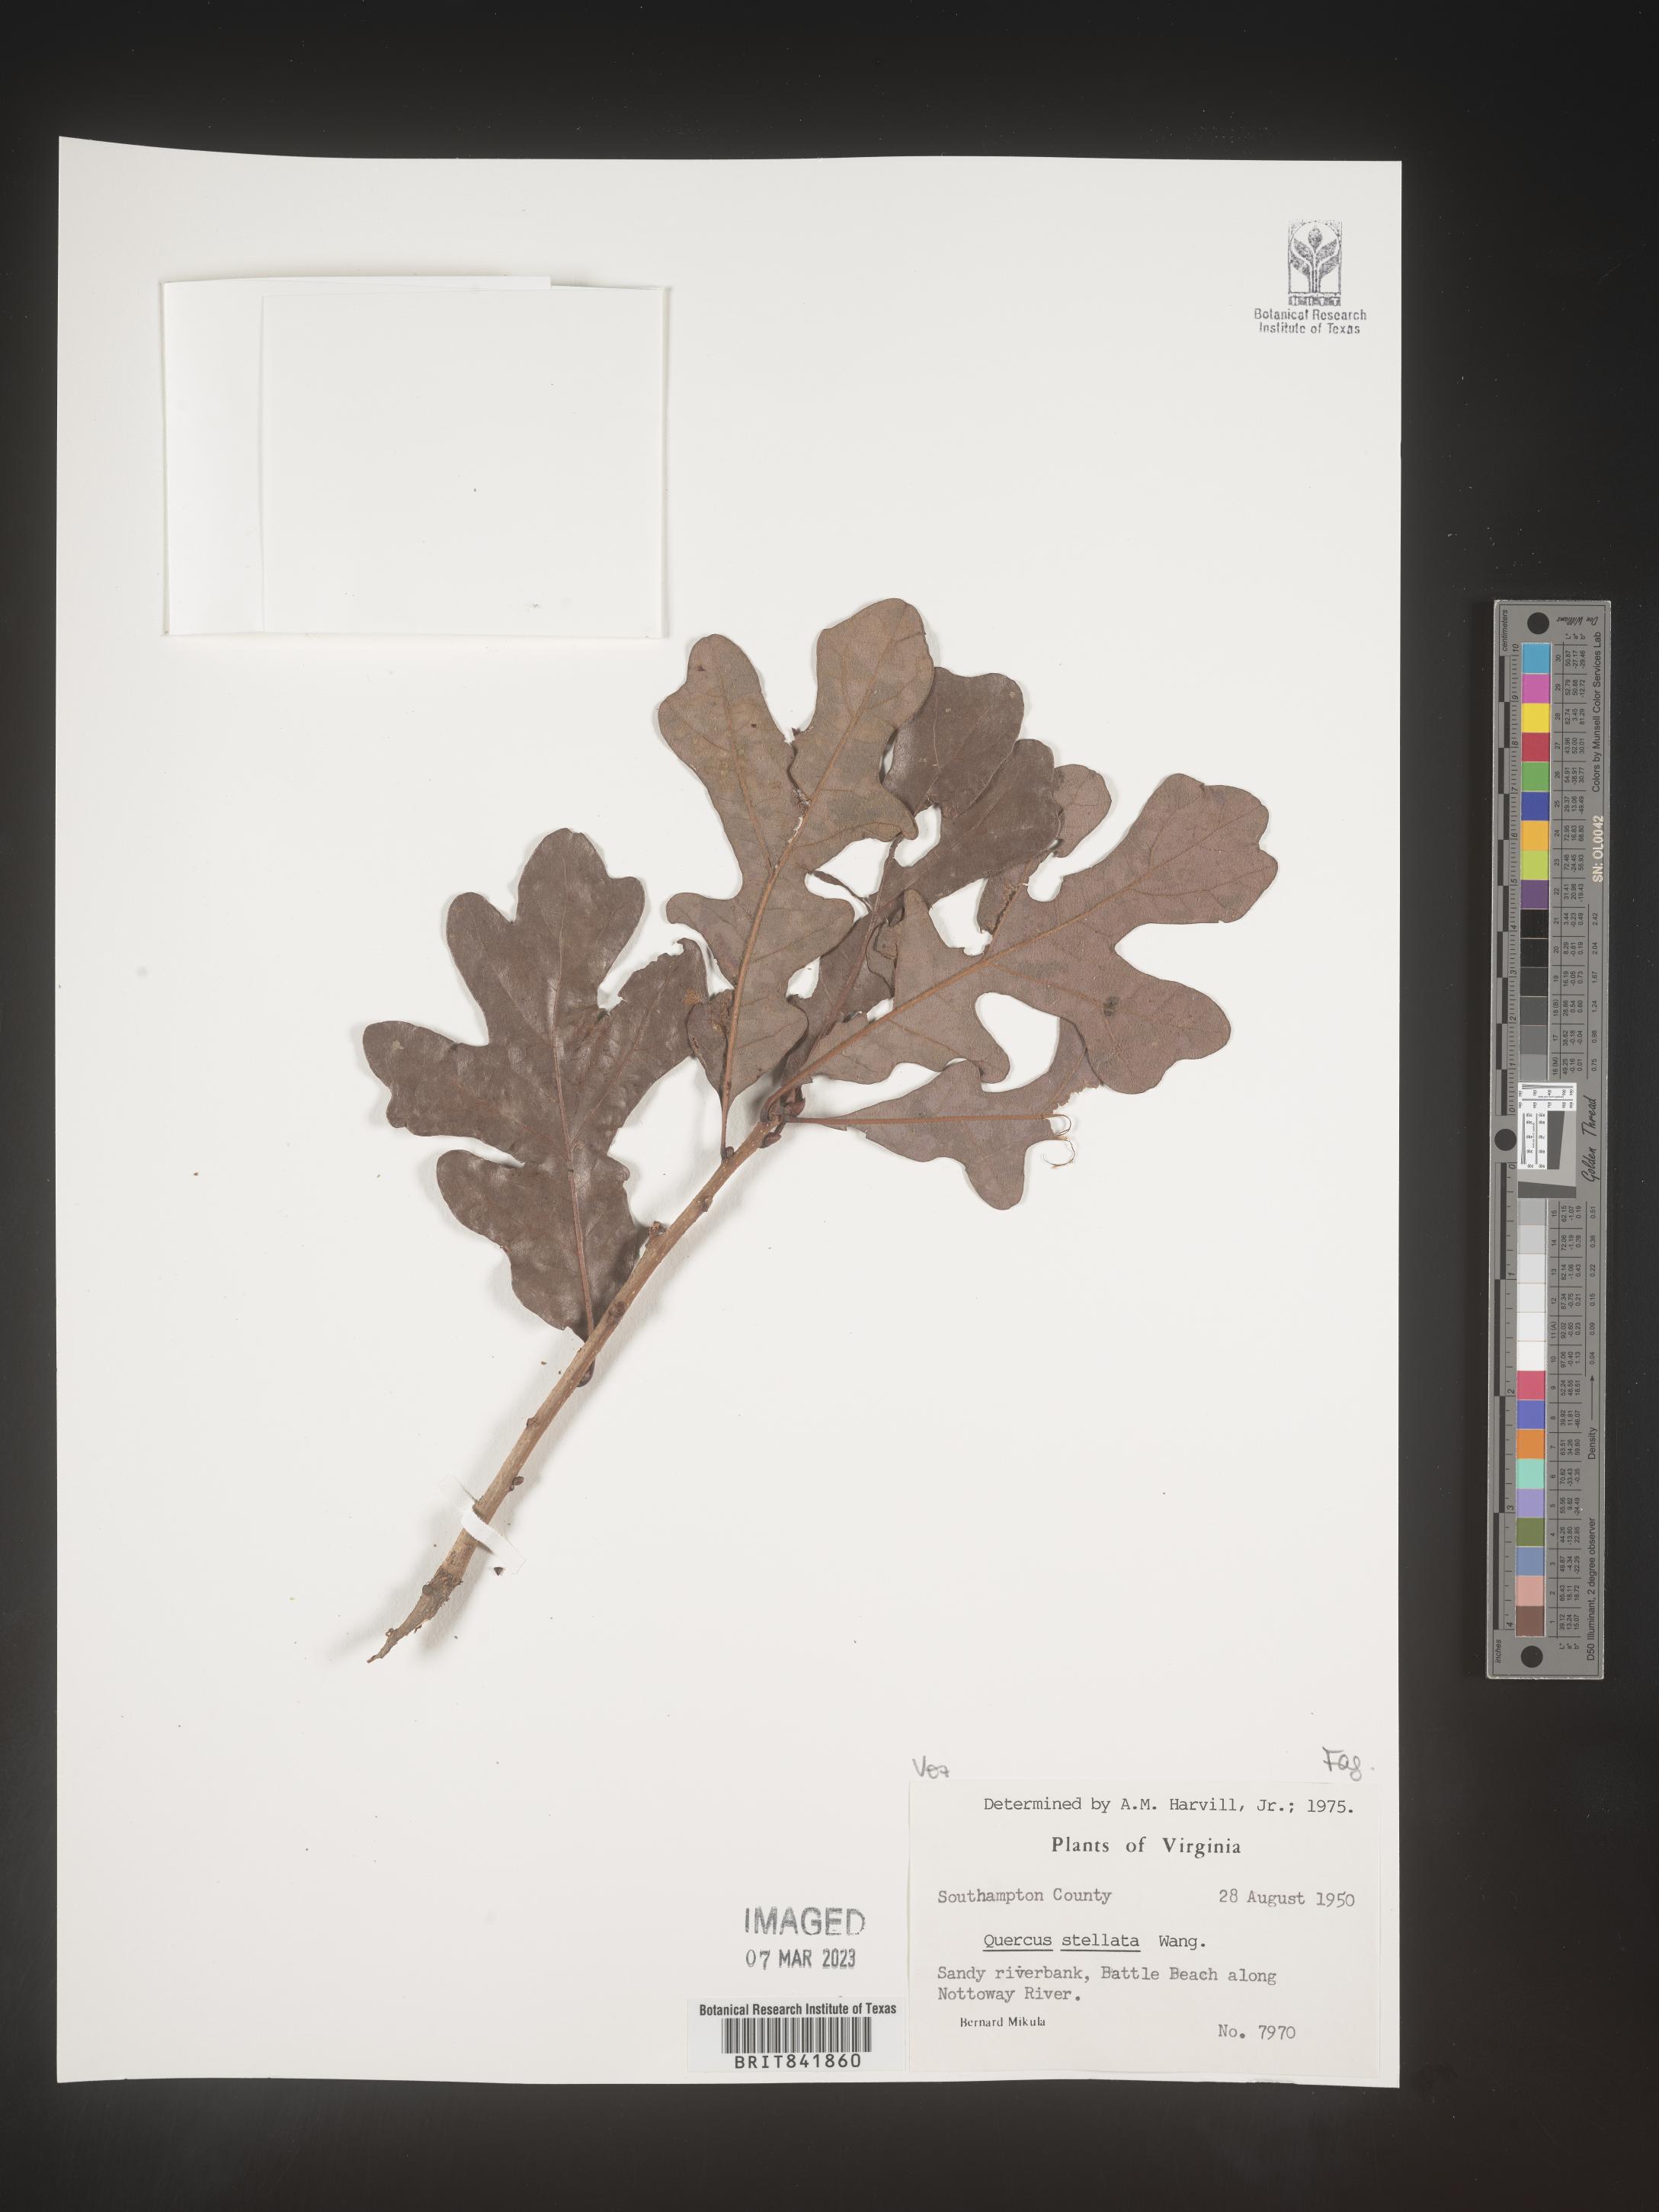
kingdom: Plantae
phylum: Tracheophyta
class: Magnoliopsida
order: Fagales
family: Fagaceae
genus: Quercus
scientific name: Quercus stellata
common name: Post oak
